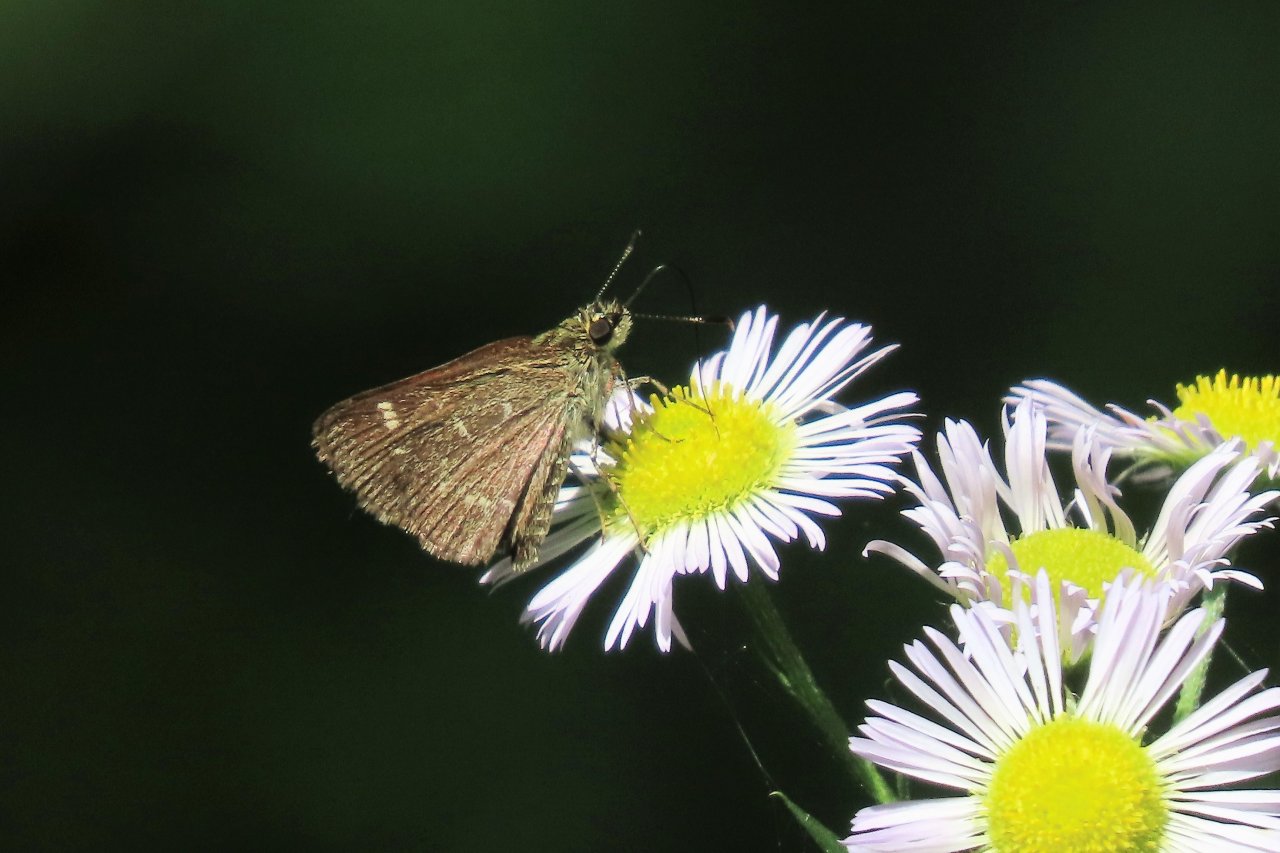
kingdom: Animalia
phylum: Arthropoda
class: Insecta
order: Lepidoptera
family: Hesperiidae
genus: Mastor
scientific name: Mastor hegon
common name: Pepper and Salt Skipper
